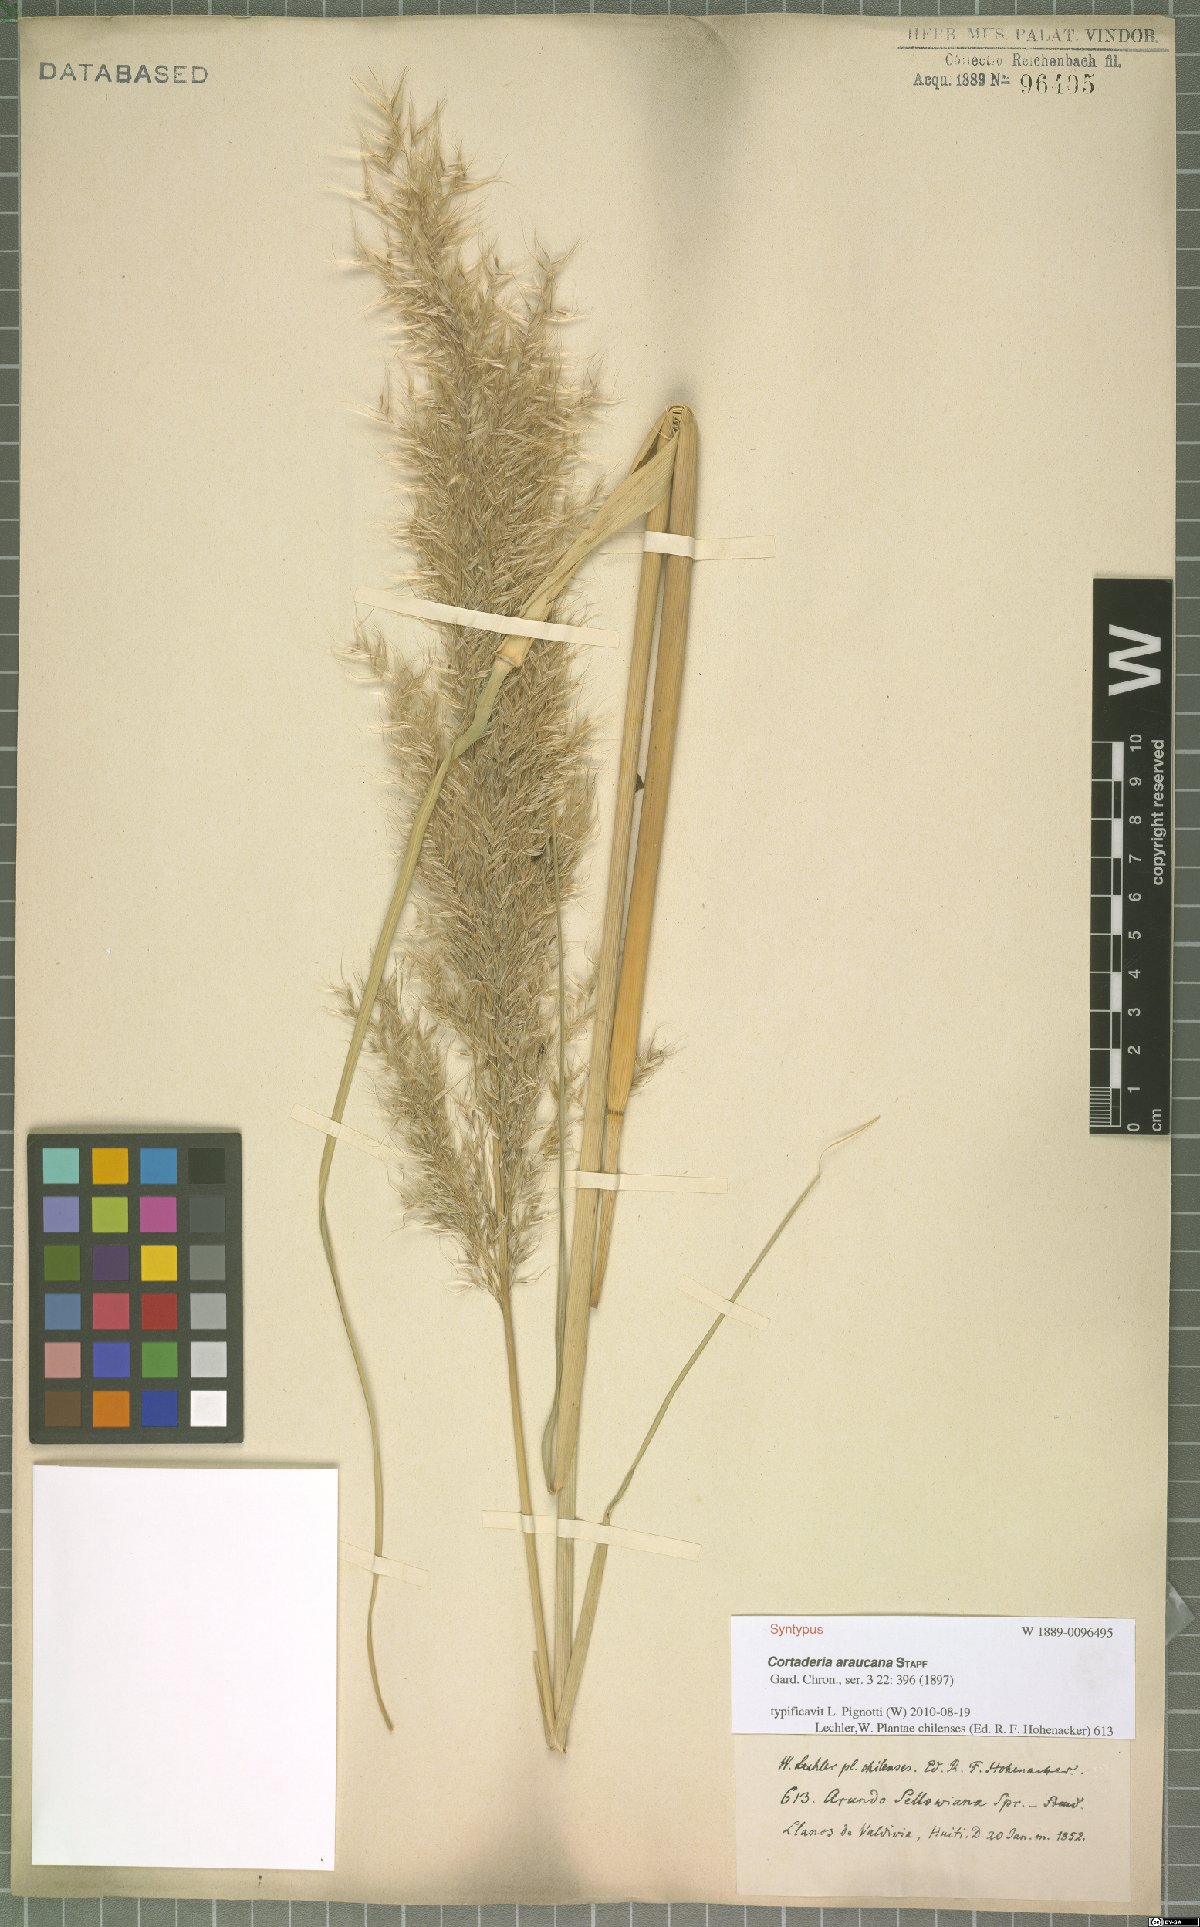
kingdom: Plantae
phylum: Tracheophyta
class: Liliopsida
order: Poales
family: Poaceae
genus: Cortaderia
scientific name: Cortaderia araucana
